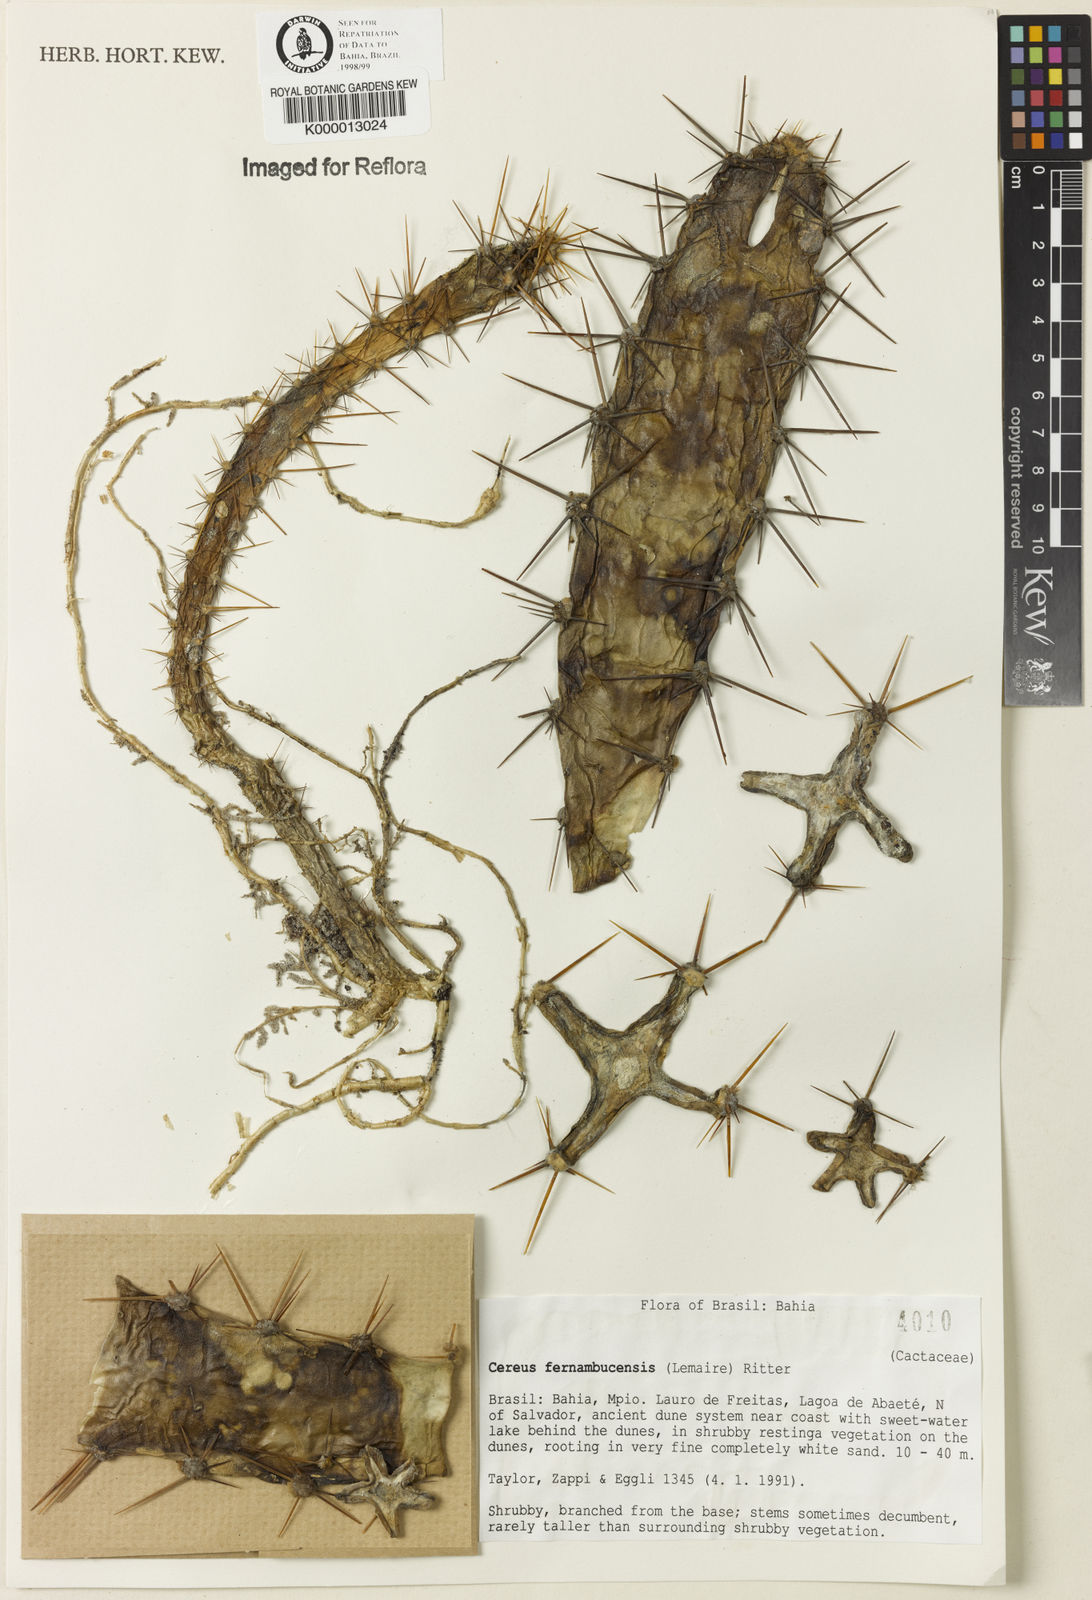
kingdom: Plantae
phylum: Tracheophyta
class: Magnoliopsida
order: Caryophyllales
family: Cactaceae
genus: Cereus
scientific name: Cereus fernambucensis
